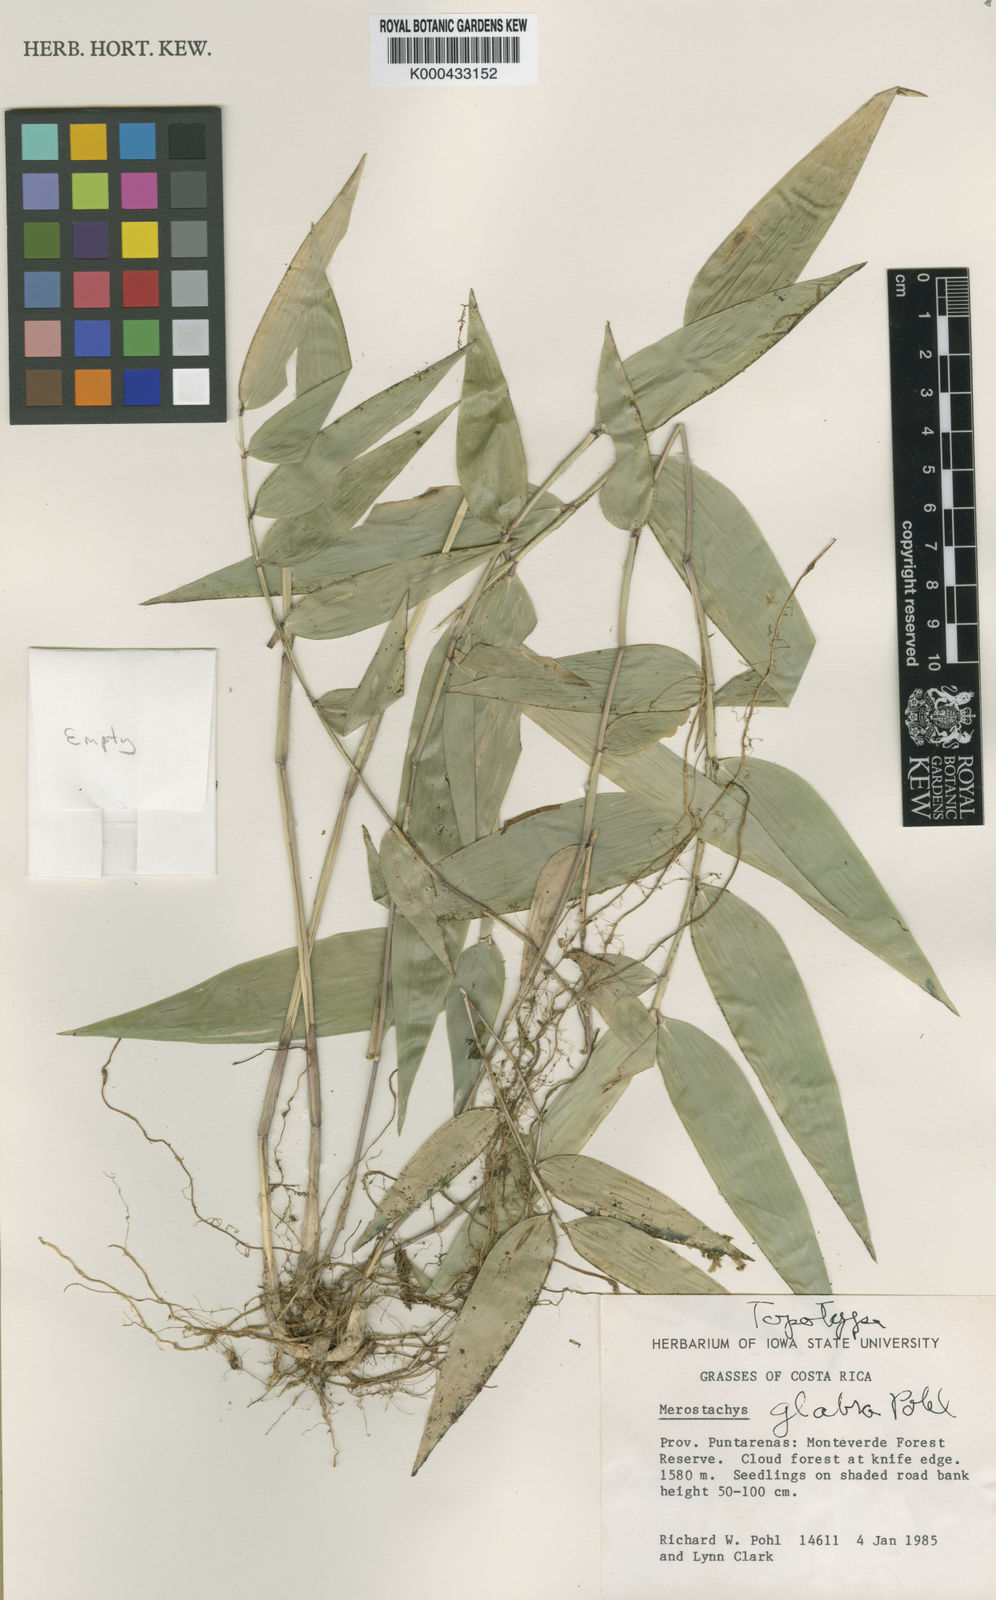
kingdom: Plantae
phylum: Tracheophyta
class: Liliopsida
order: Poales
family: Poaceae
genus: Merostachys
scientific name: Merostachys
